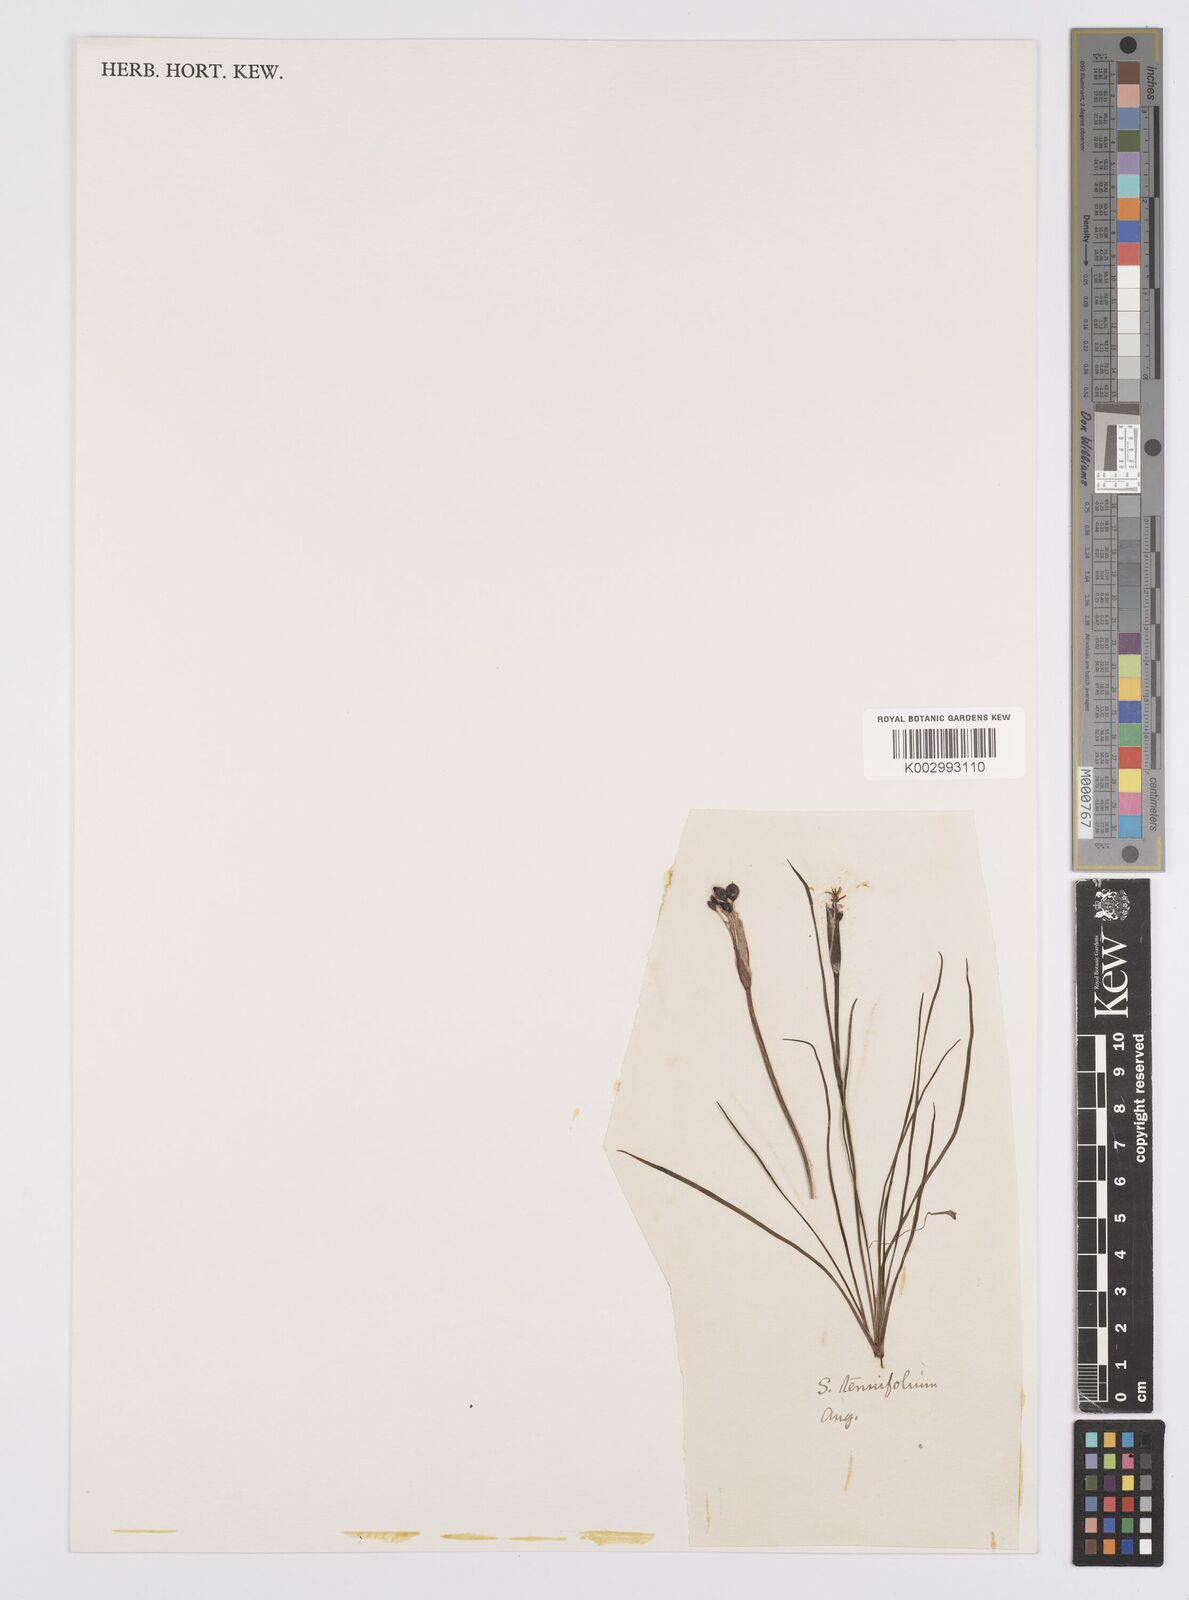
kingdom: Plantae
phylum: Tracheophyta
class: Liliopsida
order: Asparagales
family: Iridaceae
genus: Sisyrinchium
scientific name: Sisyrinchium graminifolium
